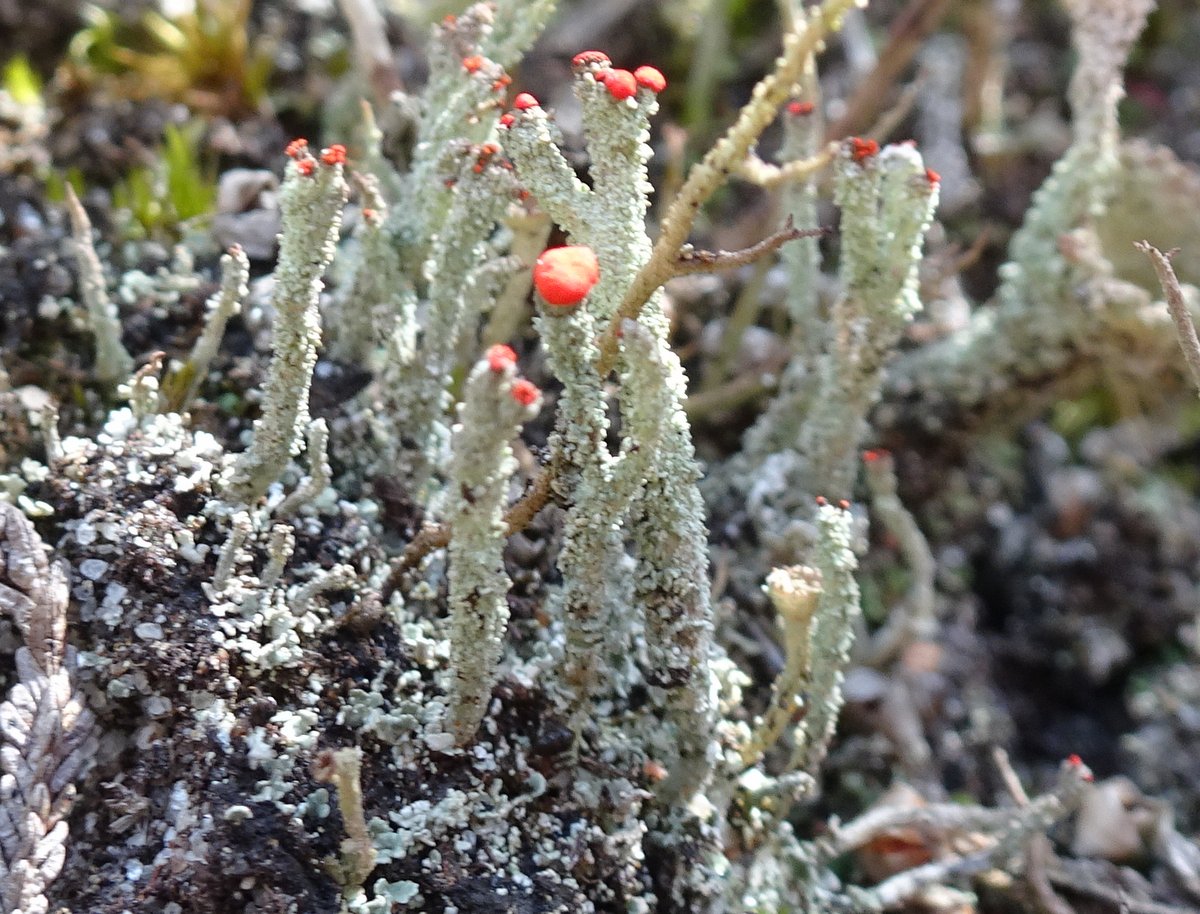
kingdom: Fungi
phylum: Ascomycota
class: Lecanoromycetes
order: Lecanorales
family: Cladoniaceae
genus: Cladonia
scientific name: Cladonia floerkeana
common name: lakrød bægerlav
